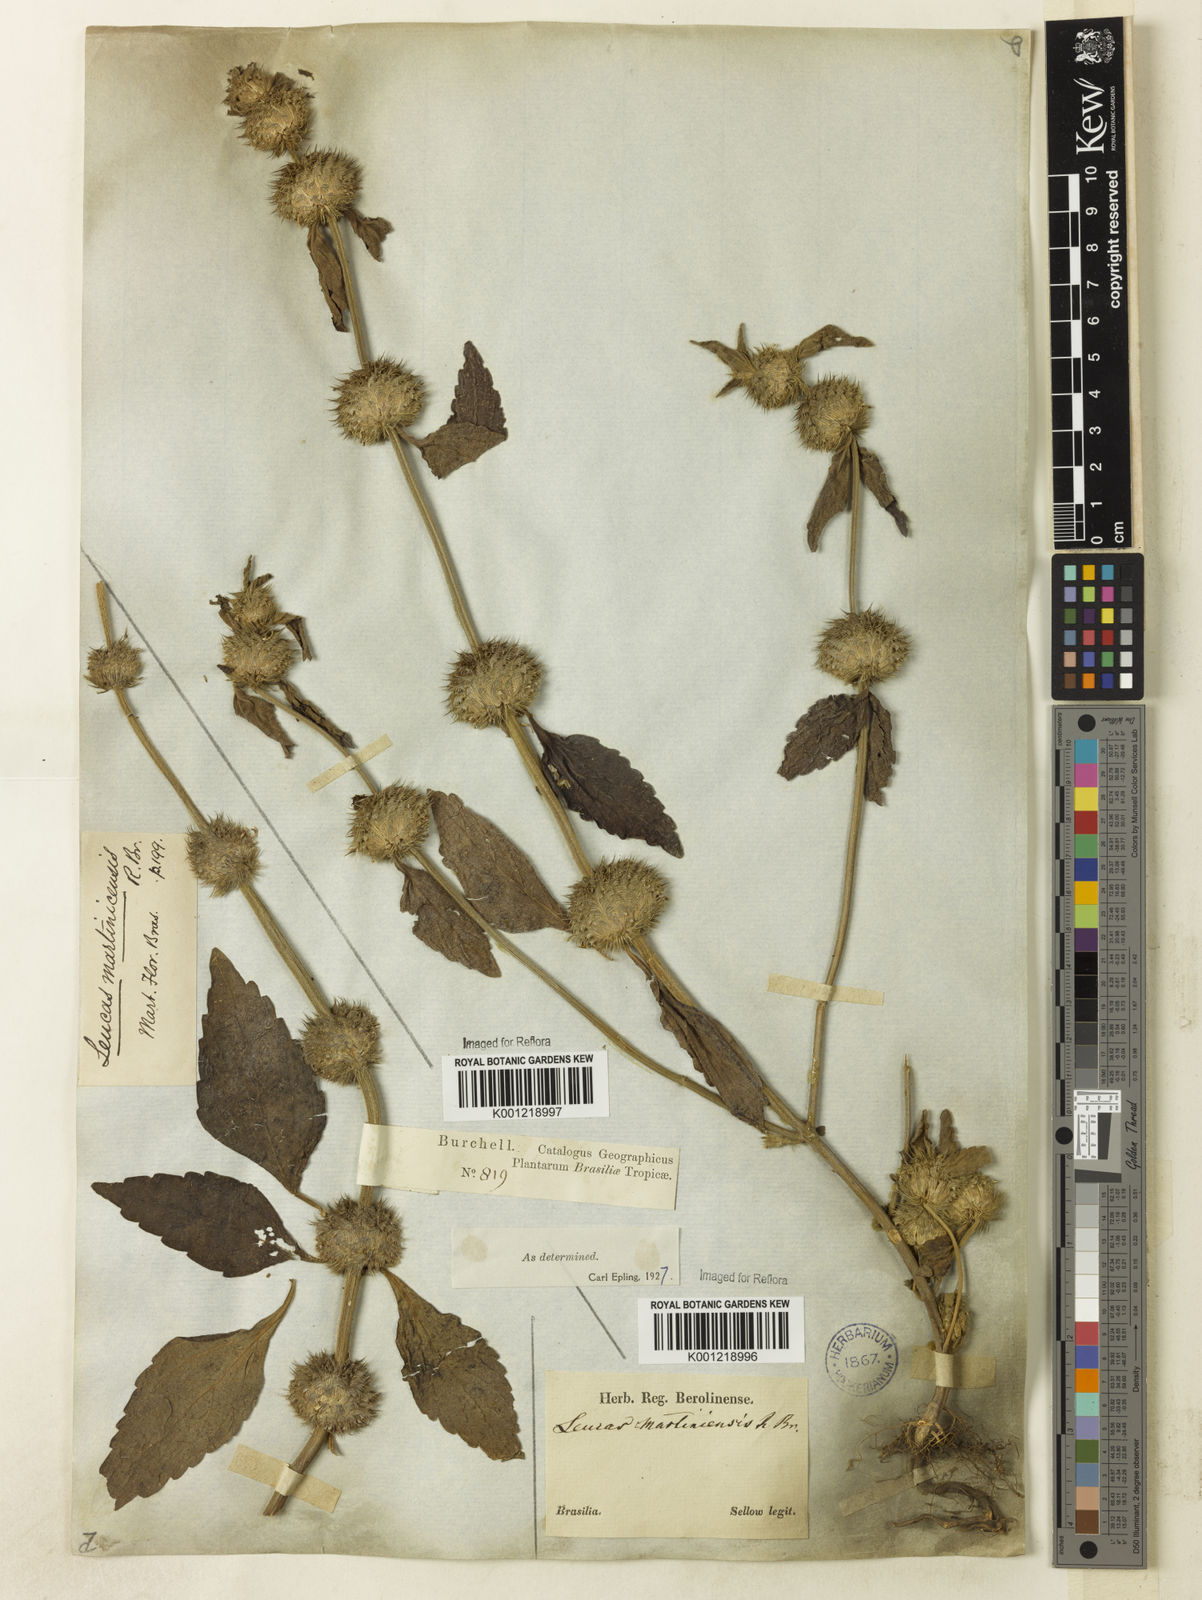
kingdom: Plantae
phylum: Tracheophyta
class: Magnoliopsida
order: Lamiales
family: Lamiaceae
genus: Leucas
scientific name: Leucas martinicensis
